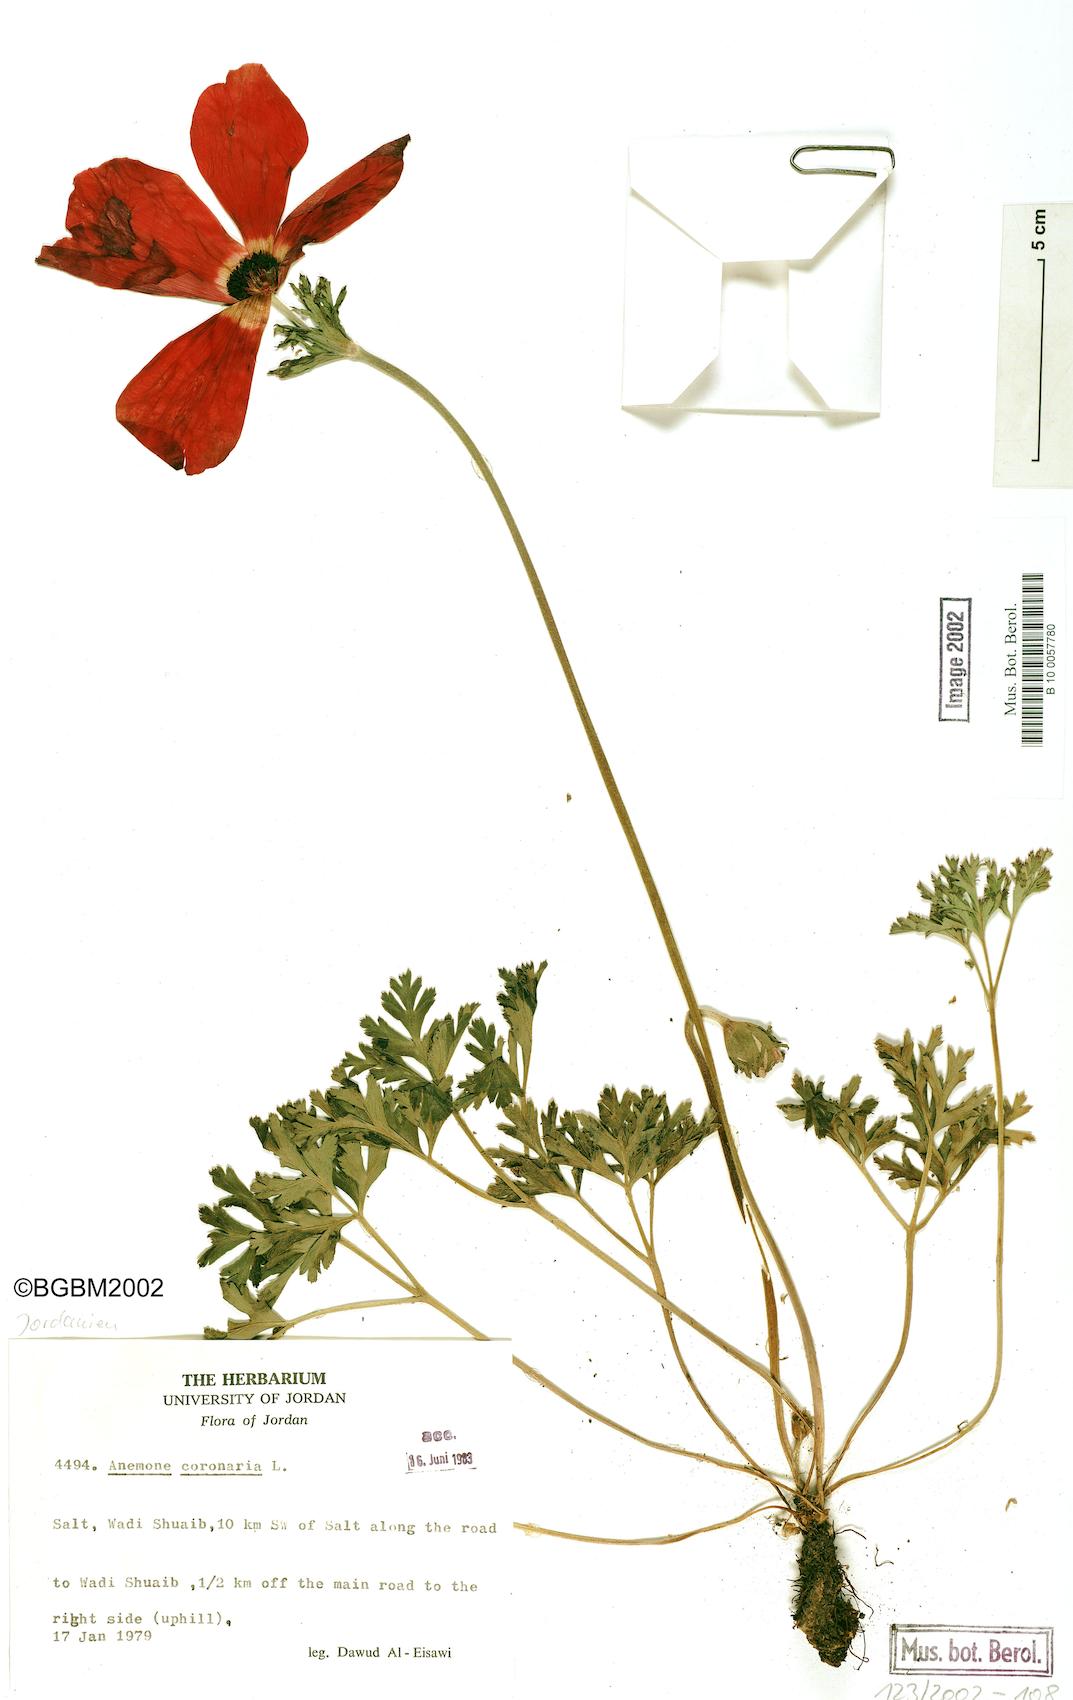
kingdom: Plantae
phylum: Tracheophyta
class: Magnoliopsida
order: Ranunculales
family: Ranunculaceae
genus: Anemone
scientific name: Anemone coronaria
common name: Poppy anemone
